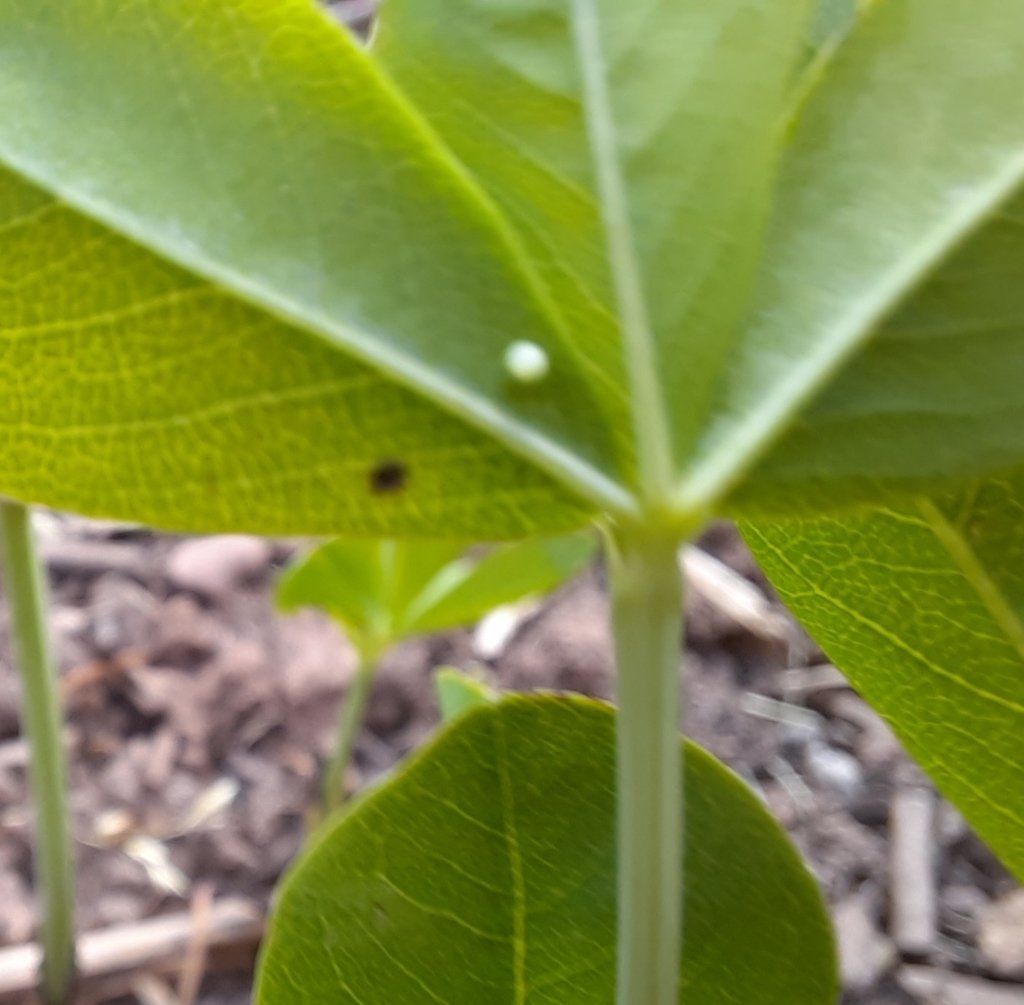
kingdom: Animalia
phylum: Arthropoda
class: Insecta
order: Lepidoptera
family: Hesperiidae
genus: Gesta
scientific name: Gesta
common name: Wild Indigo Duskywing
